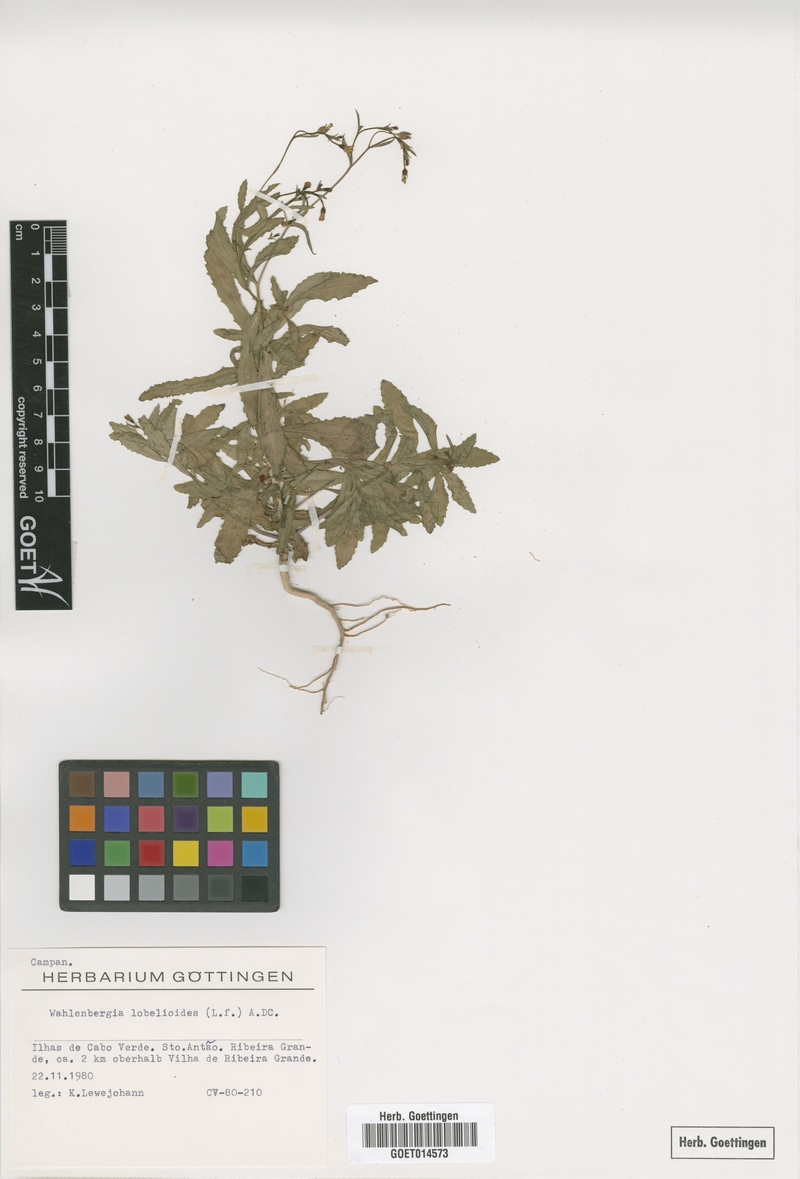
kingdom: Plantae
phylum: Tracheophyta
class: Magnoliopsida
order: Asterales
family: Campanulaceae
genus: Wahlenbergia
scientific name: Wahlenbergia lobelioides
